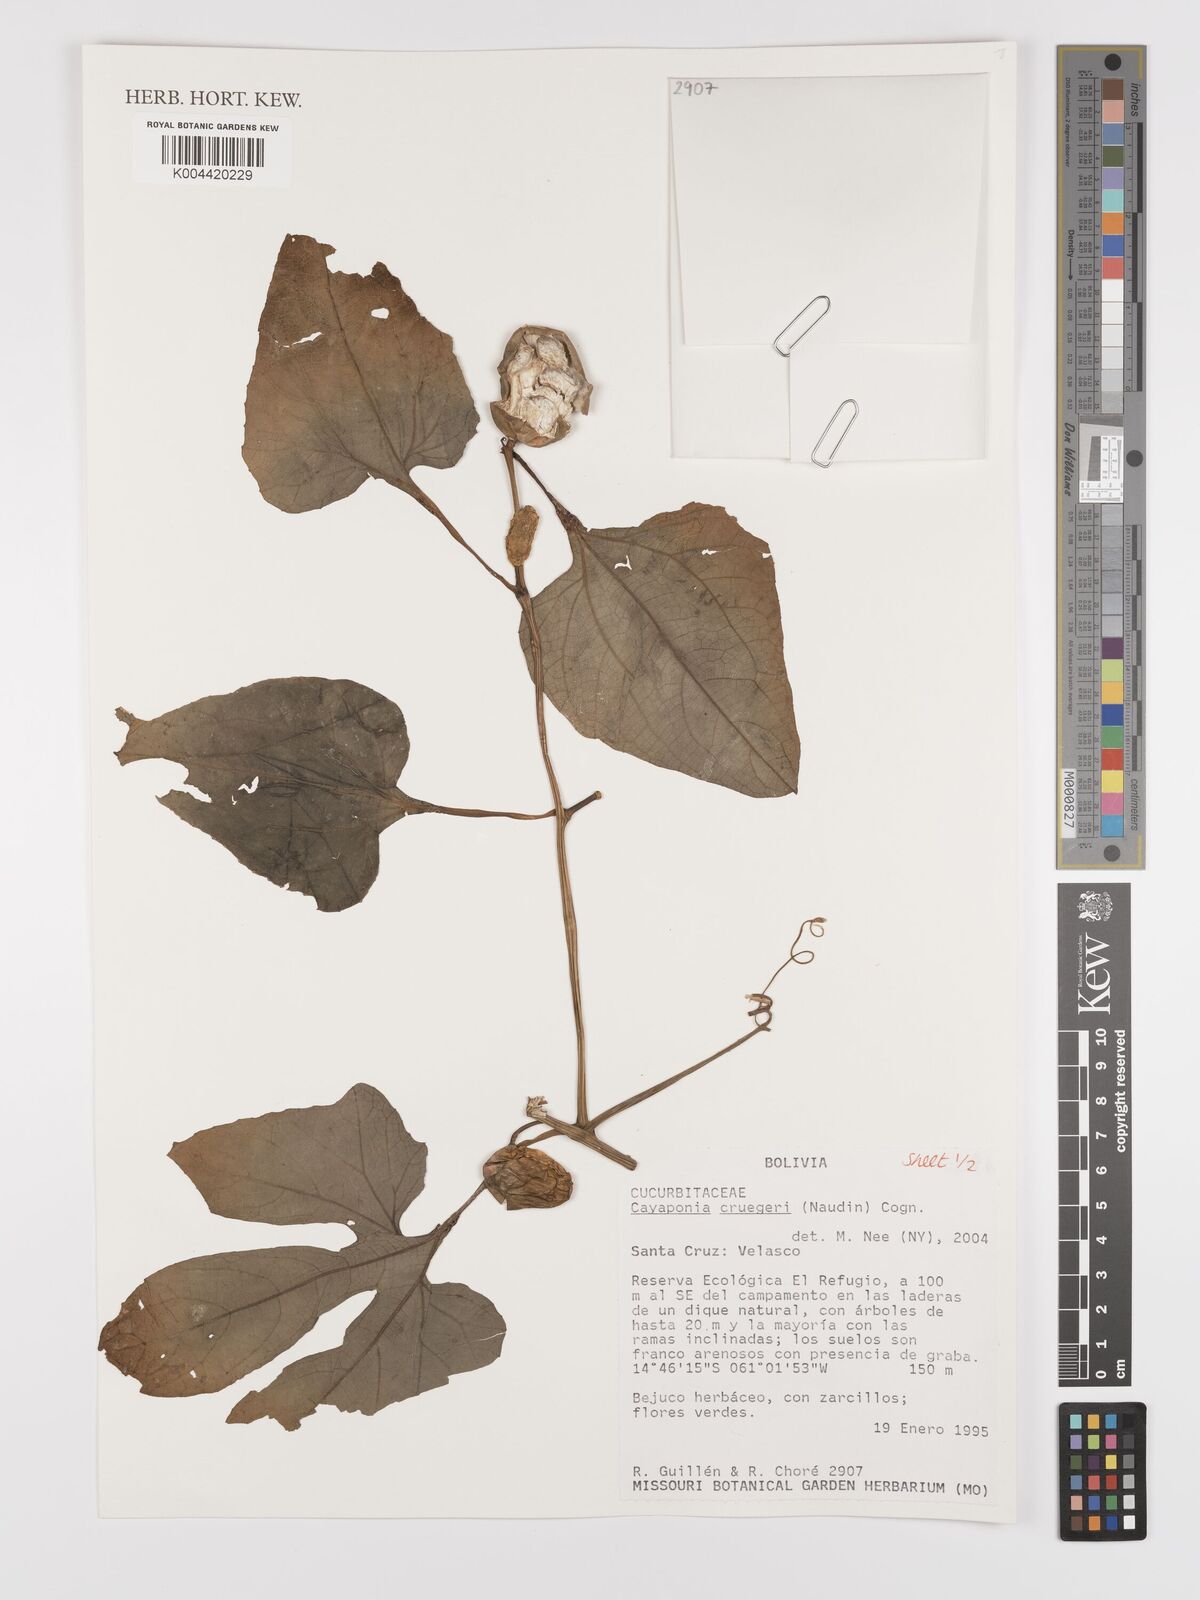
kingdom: Plantae
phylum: Tracheophyta
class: Magnoliopsida
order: Cucurbitales
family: Cucurbitaceae
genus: Cayaponia
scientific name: Cayaponia cruegeri
